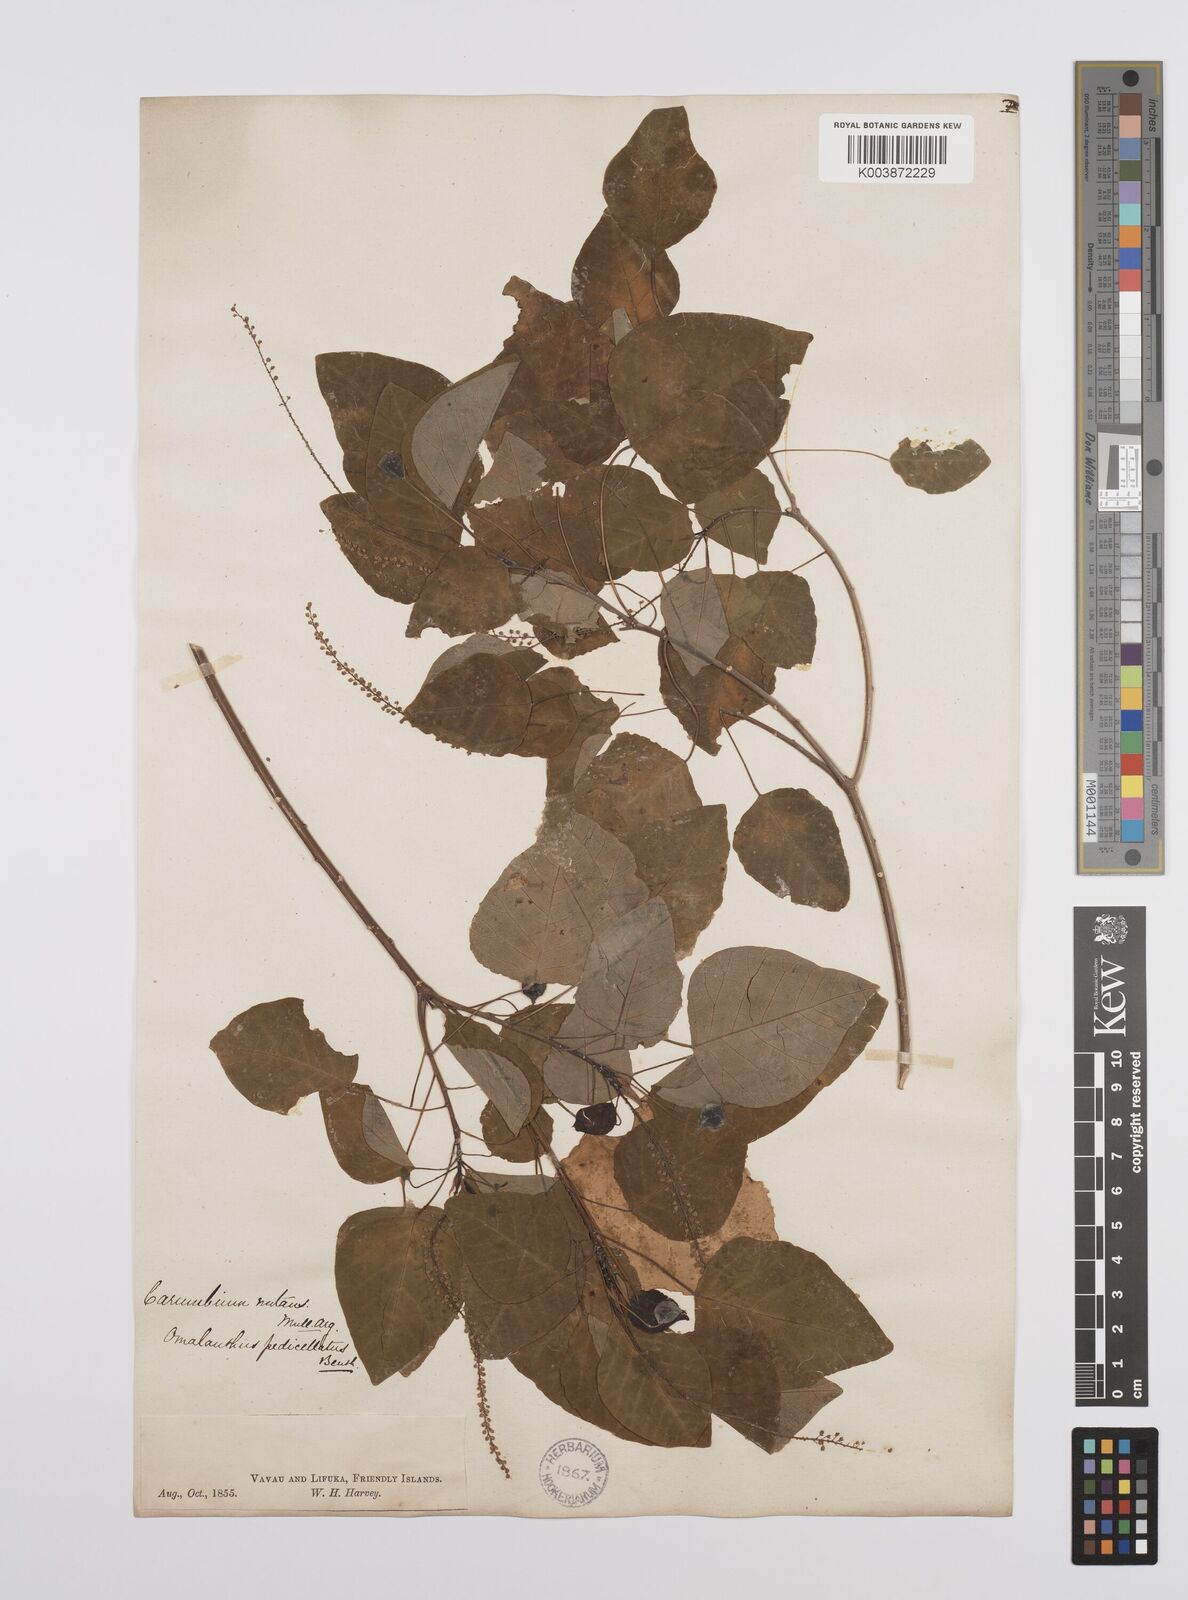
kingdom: Plantae
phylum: Tracheophyta
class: Magnoliopsida
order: Malpighiales
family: Euphorbiaceae
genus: Homalanthus
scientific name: Homalanthus nutans
